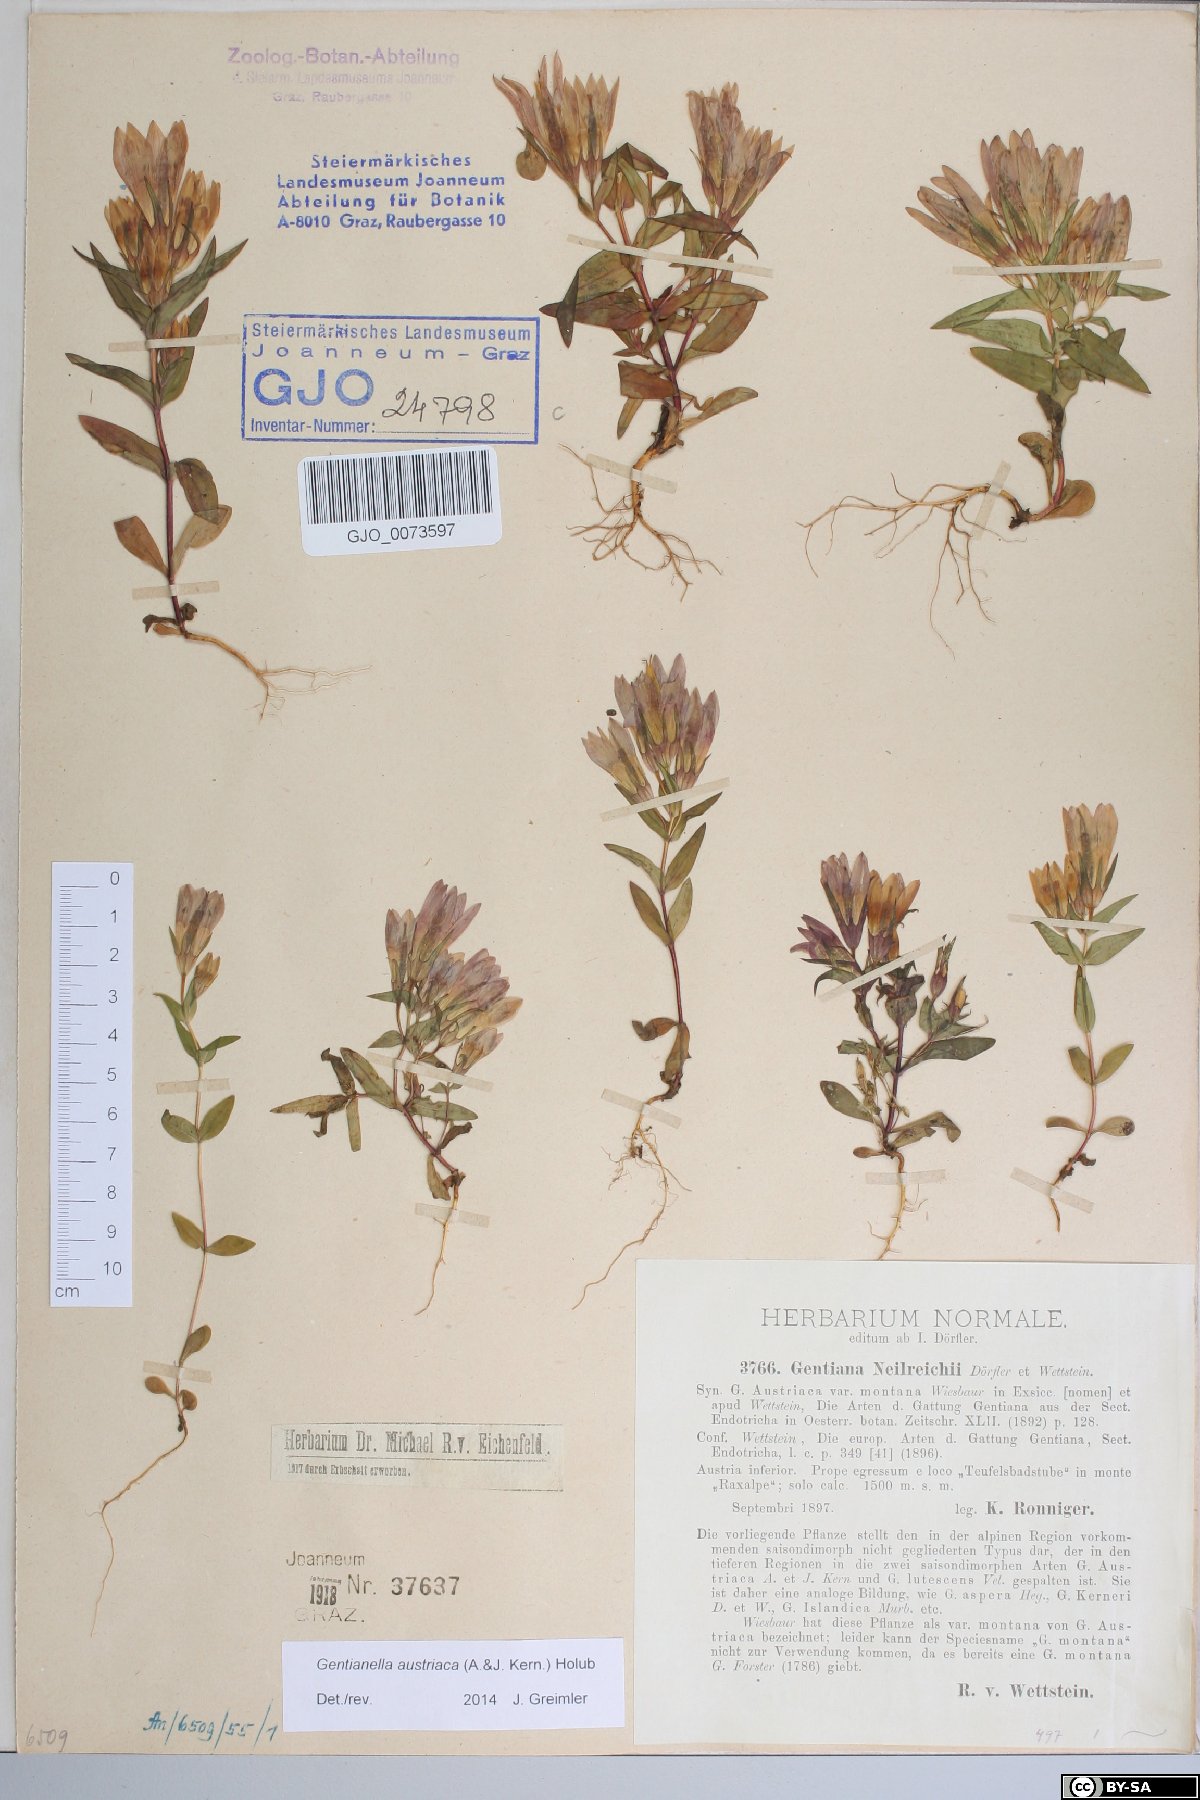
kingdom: Plantae
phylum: Tracheophyta
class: Magnoliopsida
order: Gentianales
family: Gentianaceae
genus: Gentianella
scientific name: Gentianella austriaca
